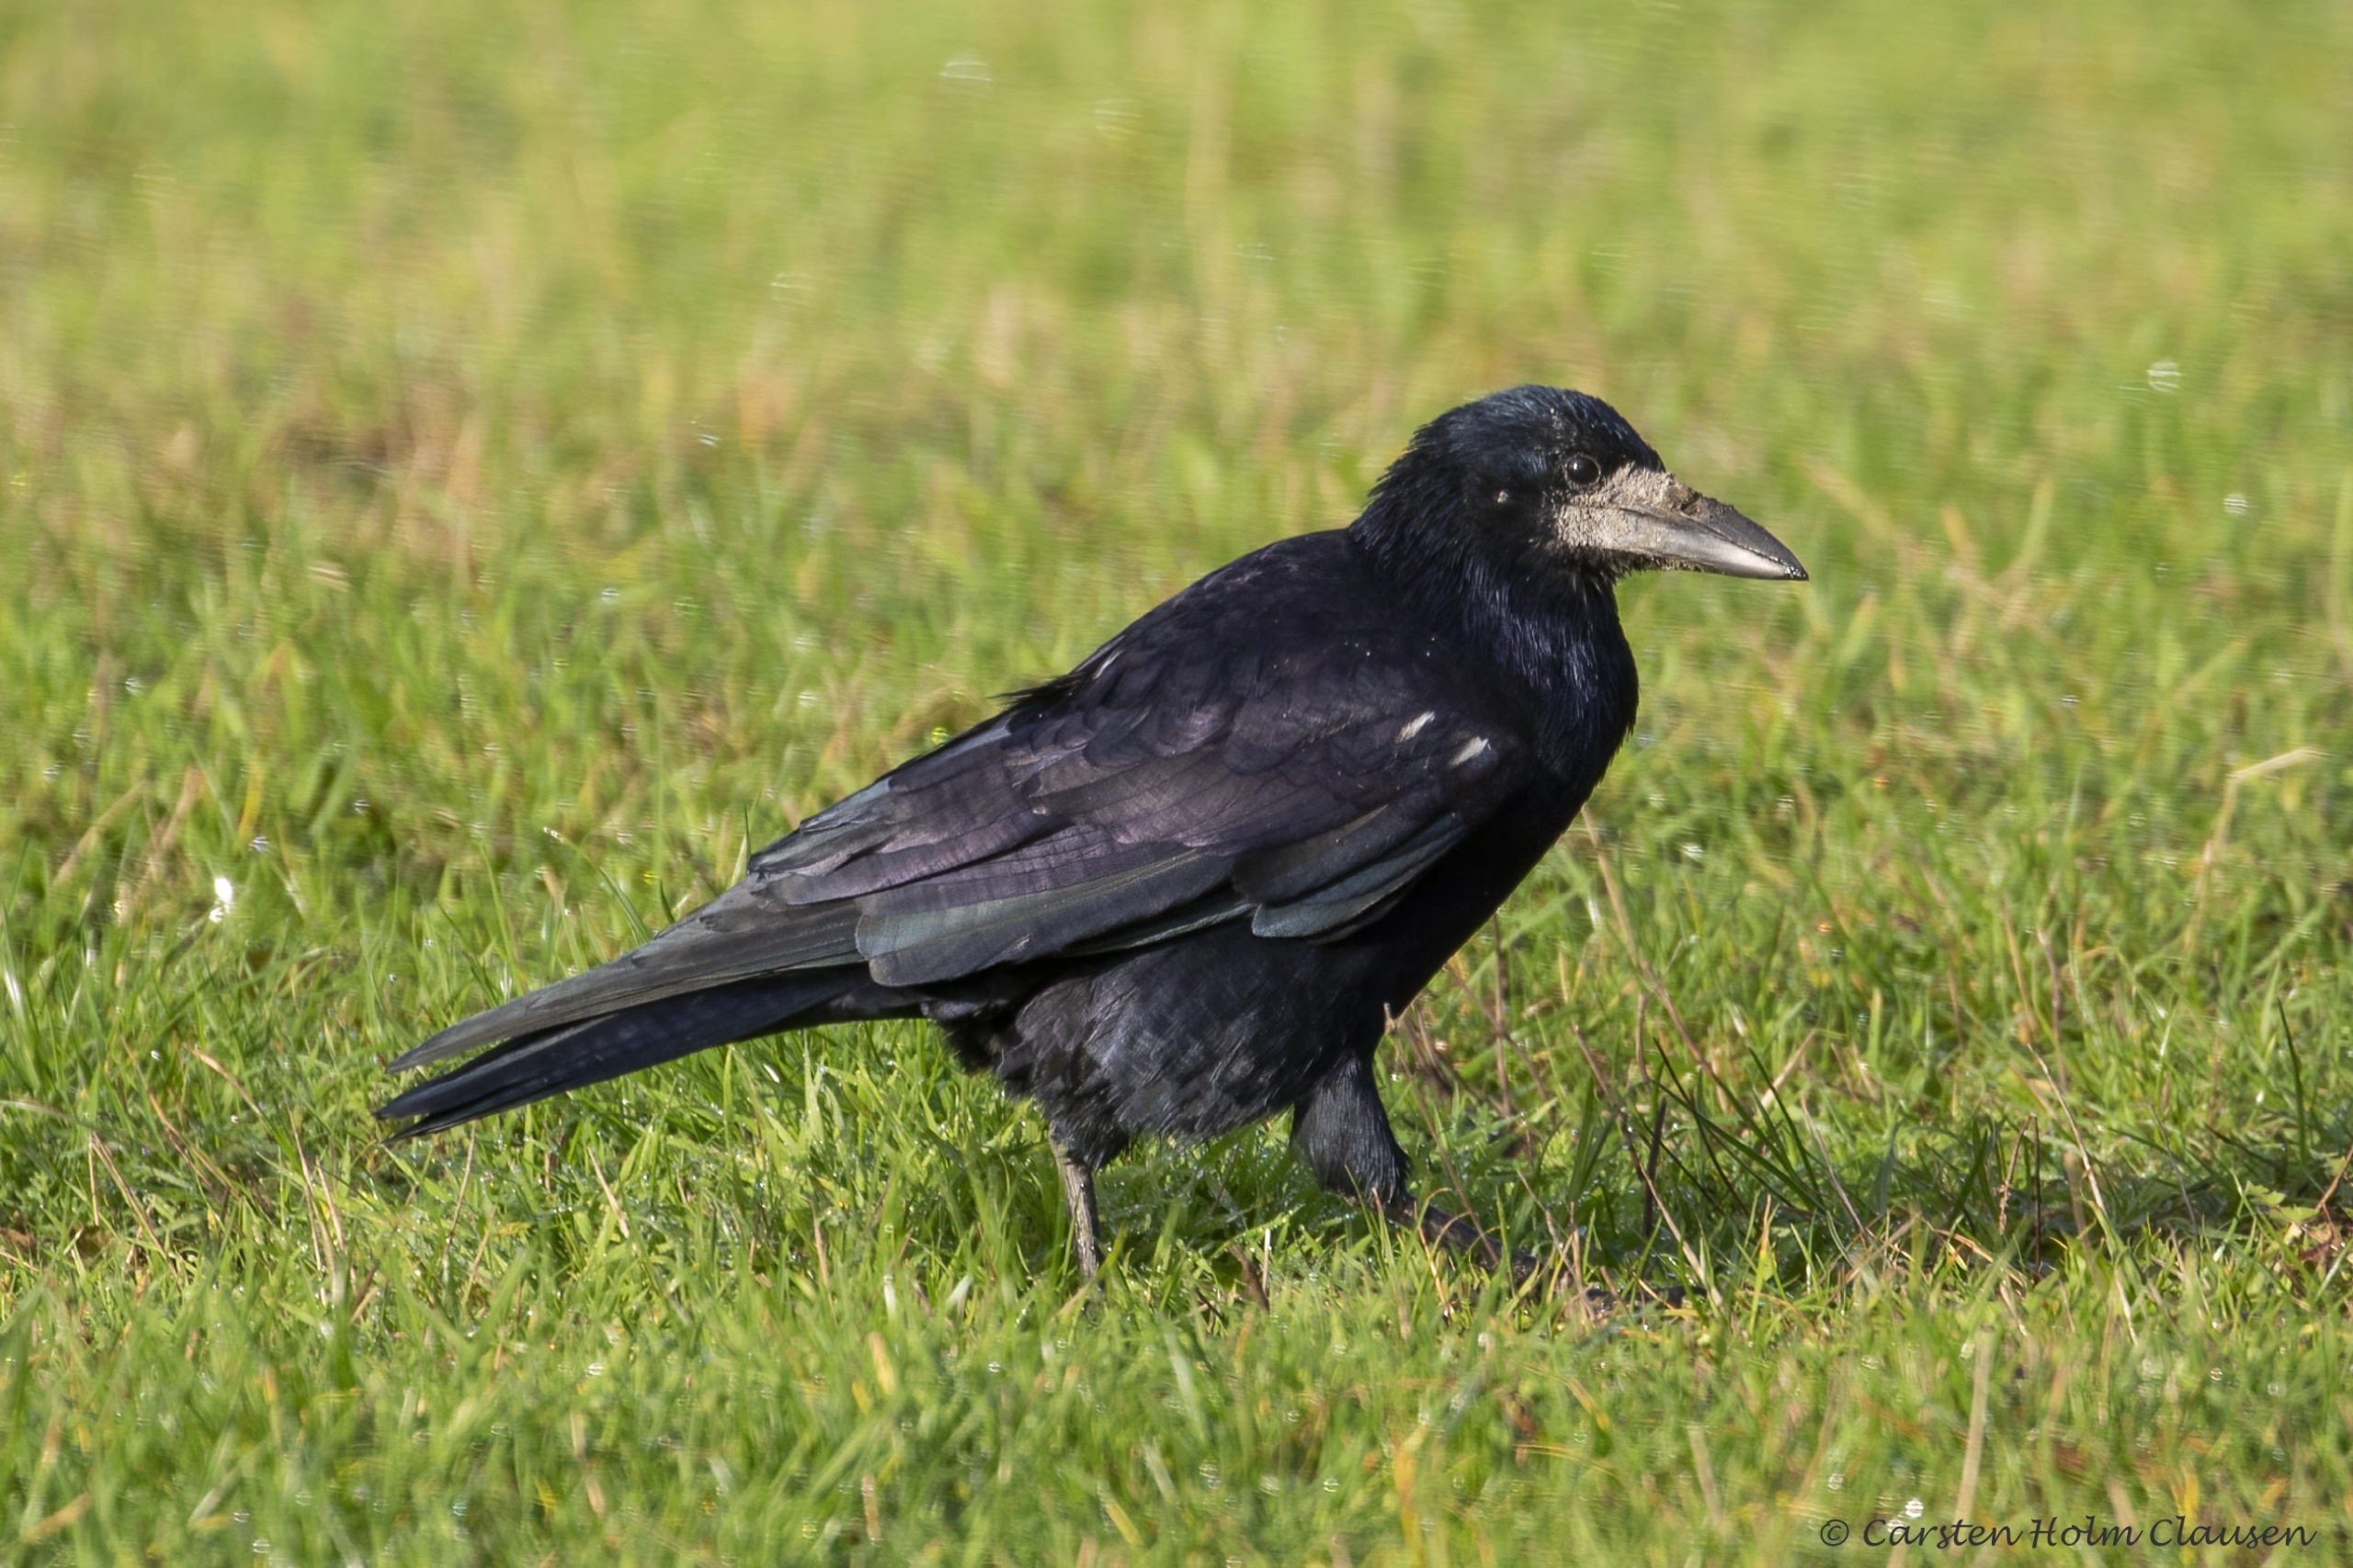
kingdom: Animalia
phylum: Chordata
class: Aves
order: Passeriformes
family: Corvidae
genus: Corvus
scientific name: Corvus frugilegus
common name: Råge
